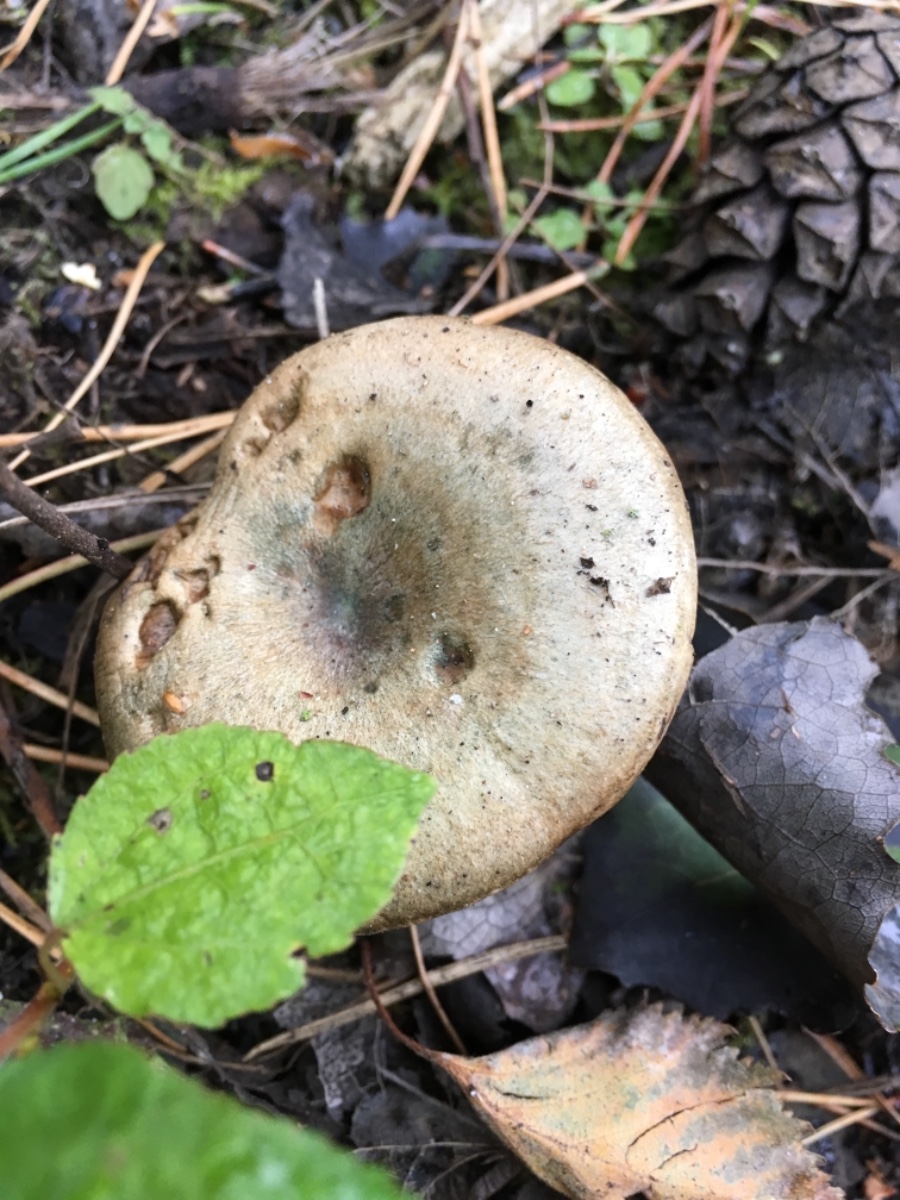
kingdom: Fungi
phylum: Basidiomycota
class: Agaricomycetes
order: Russulales
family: Russulaceae
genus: Lactarius
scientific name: Lactarius quieticolor
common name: tvefarvet mælkehat
